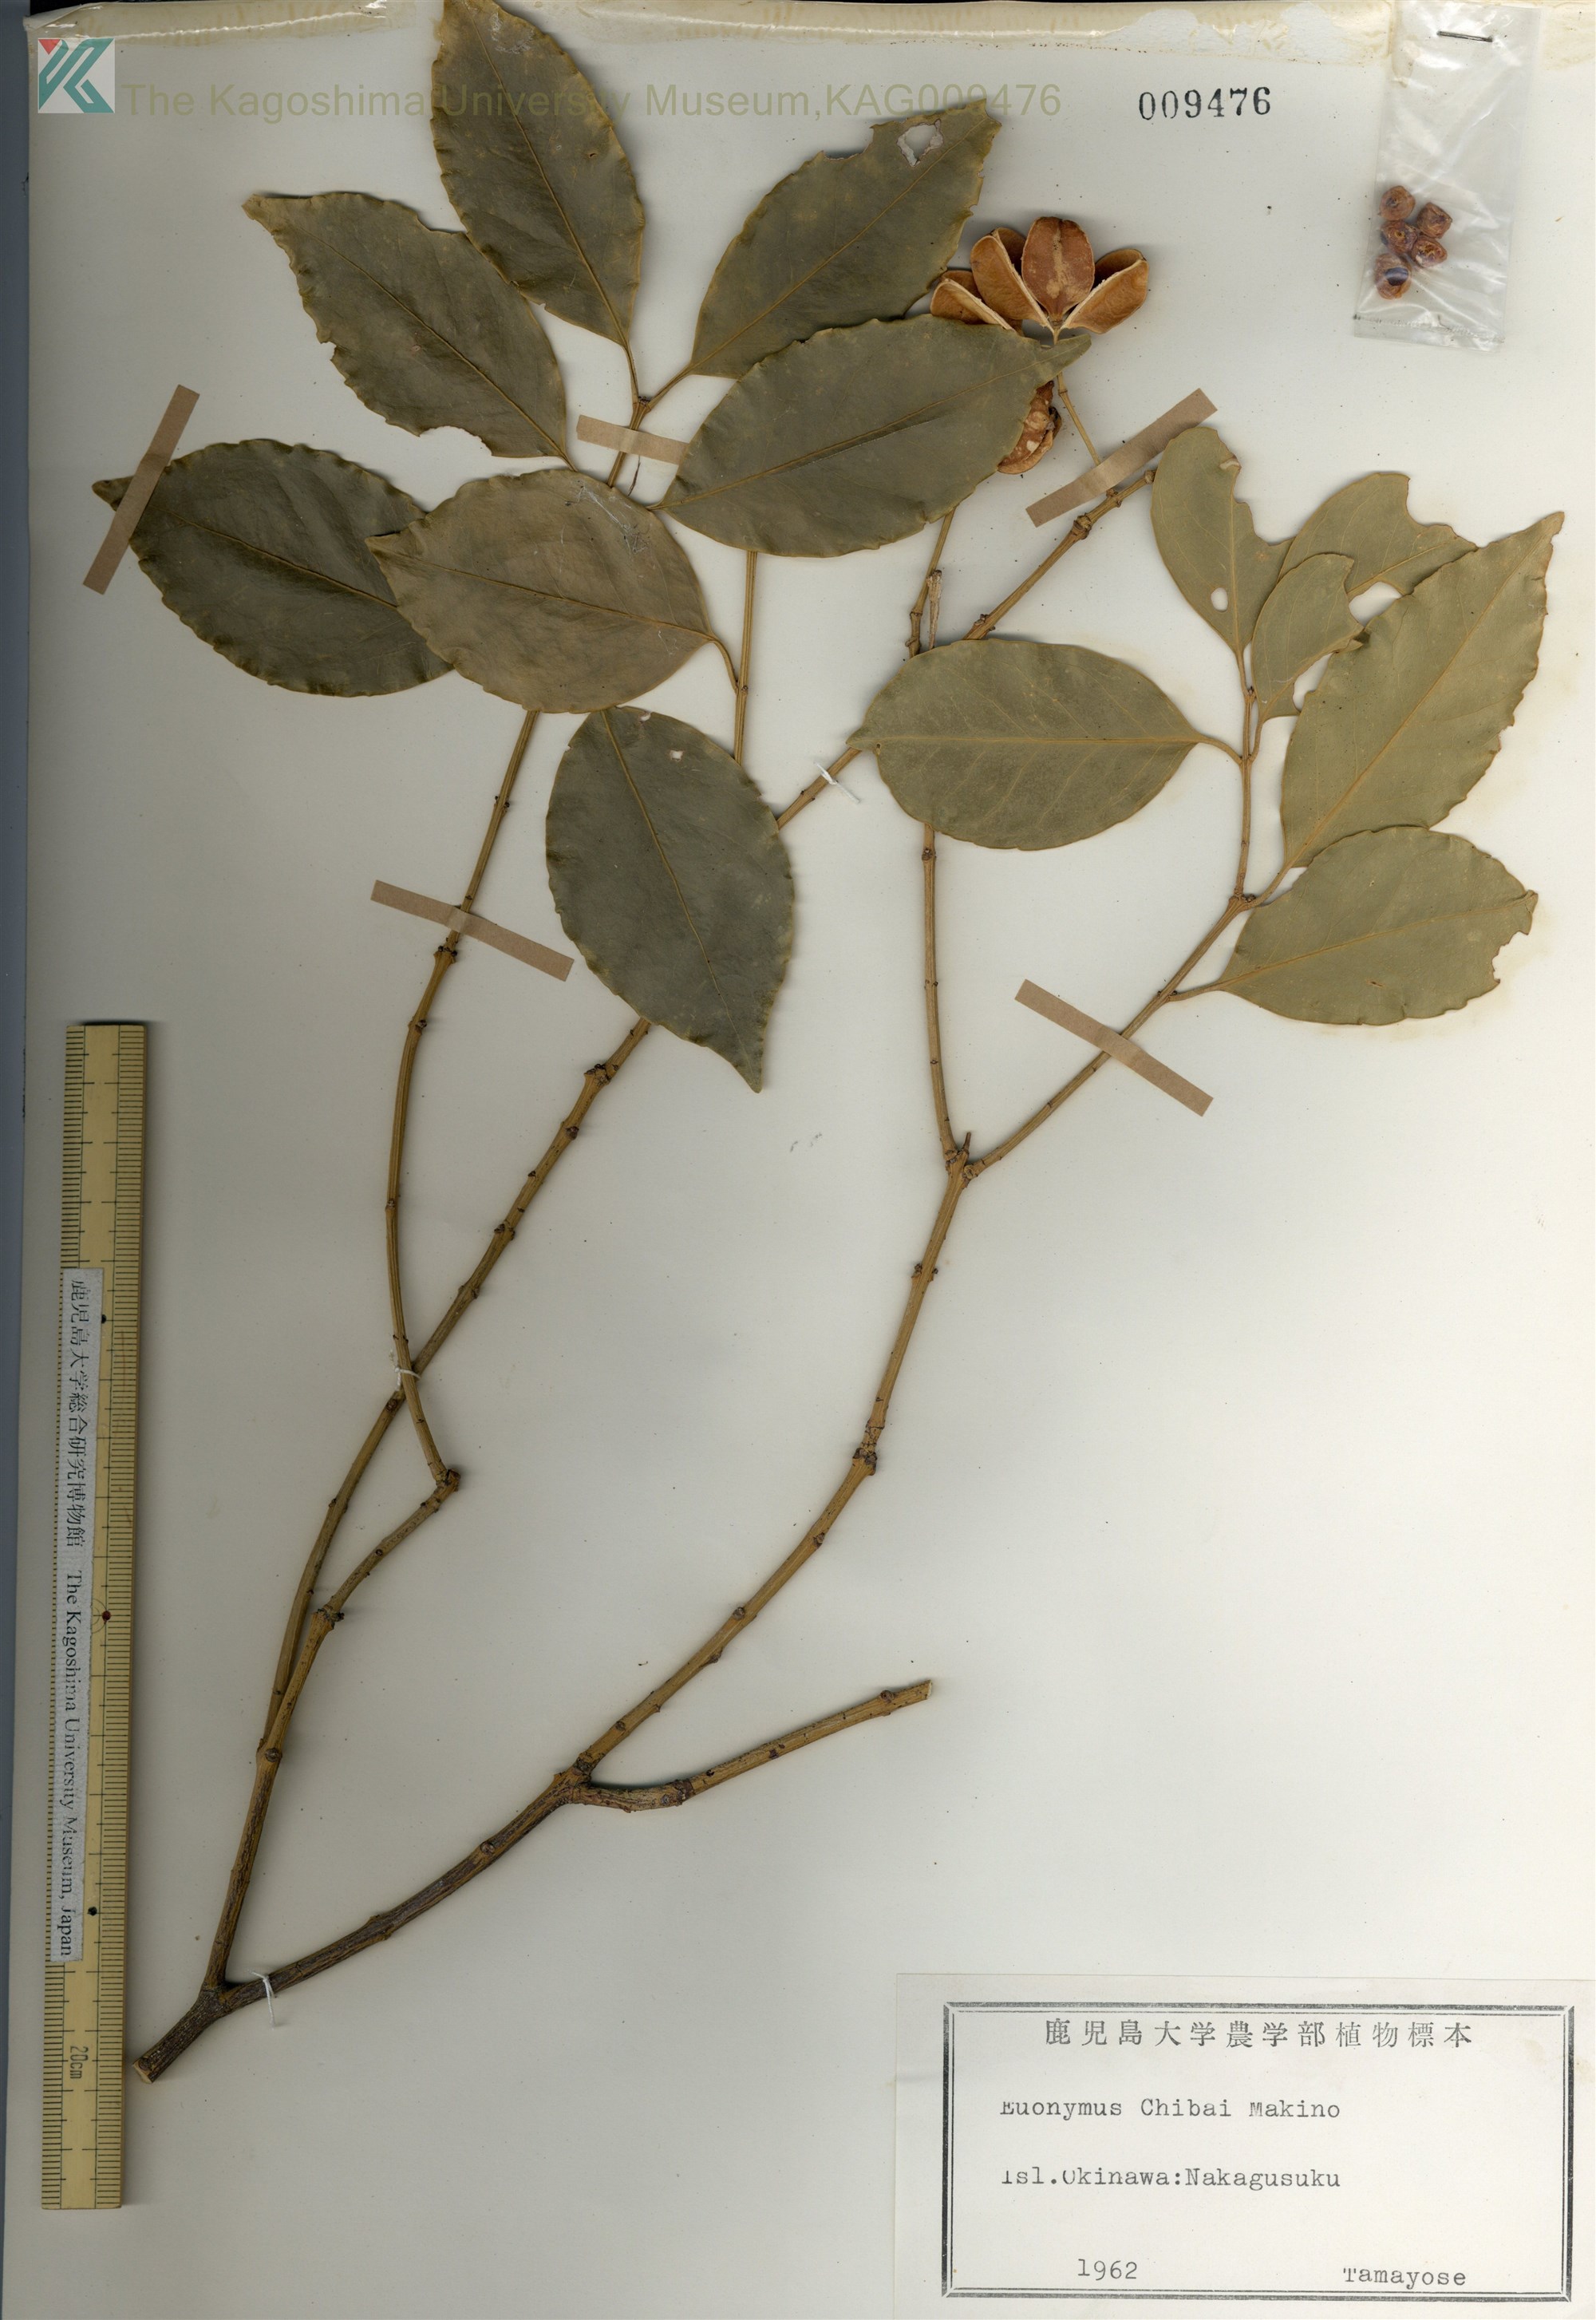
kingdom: Plantae
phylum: Tracheophyta
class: Magnoliopsida
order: Celastrales
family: Celastraceae
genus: Euonymus
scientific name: Euonymus chibae
